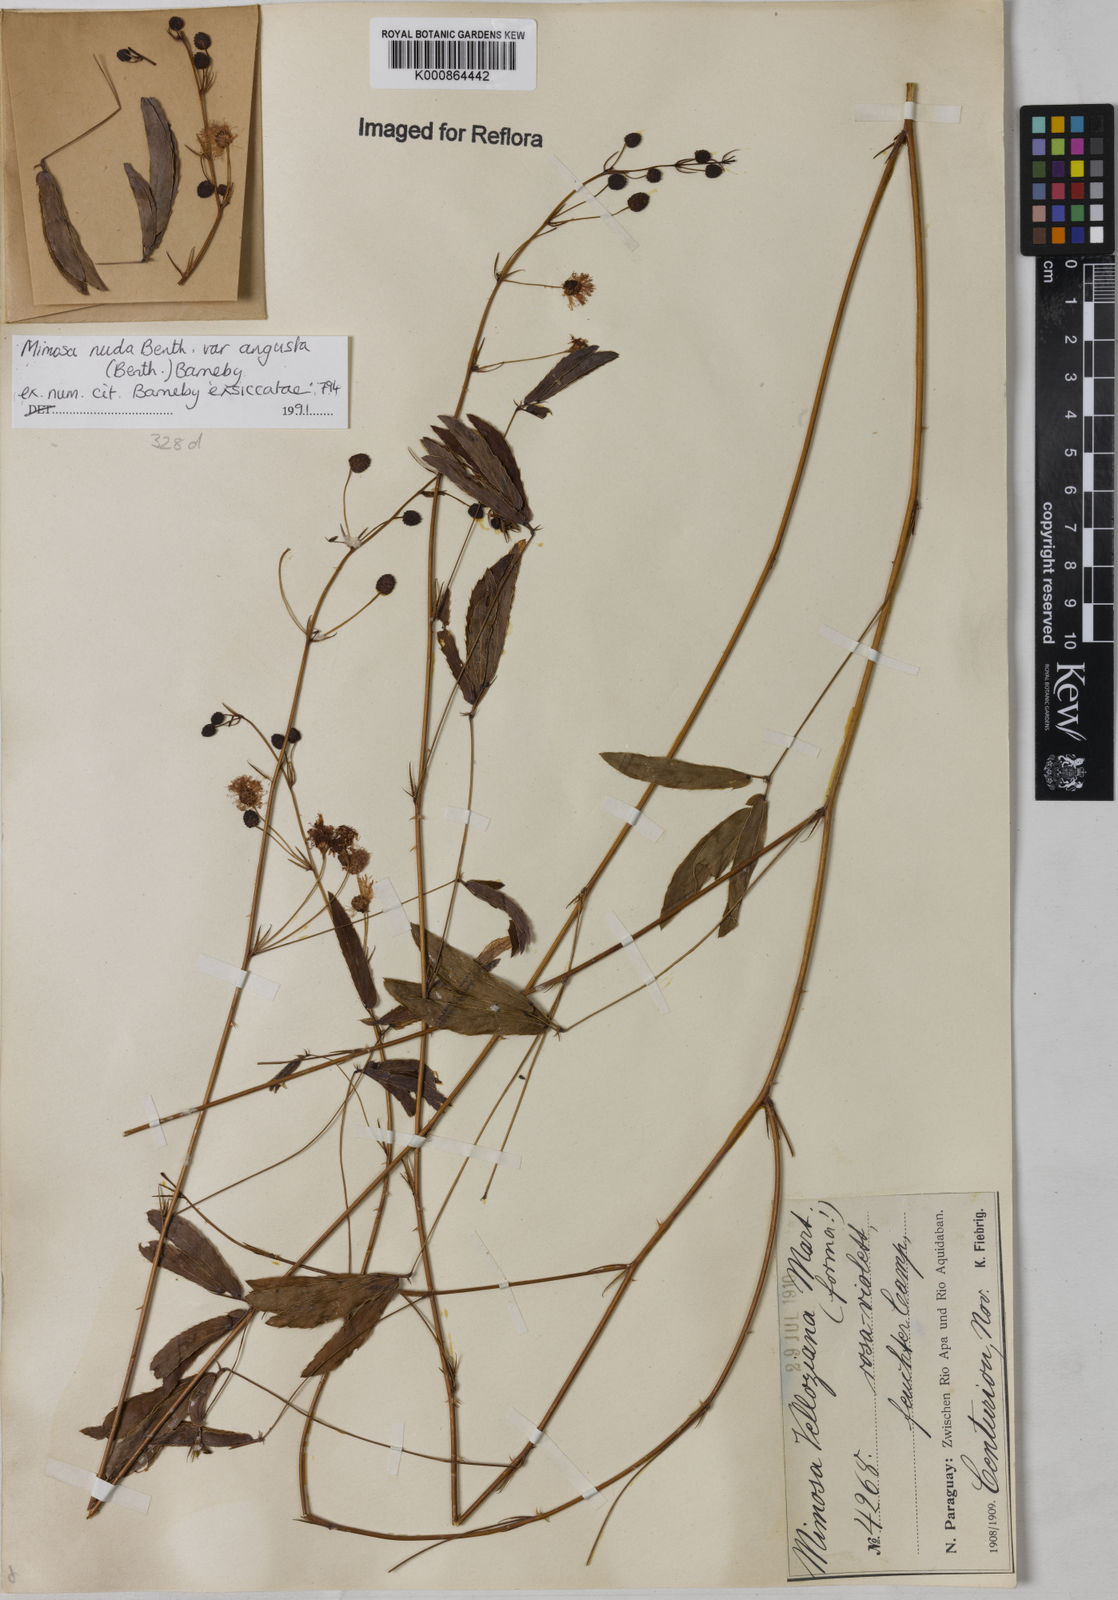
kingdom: Plantae
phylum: Tracheophyta
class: Magnoliopsida
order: Fabales
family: Fabaceae
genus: Mimosa
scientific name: Mimosa debilis
